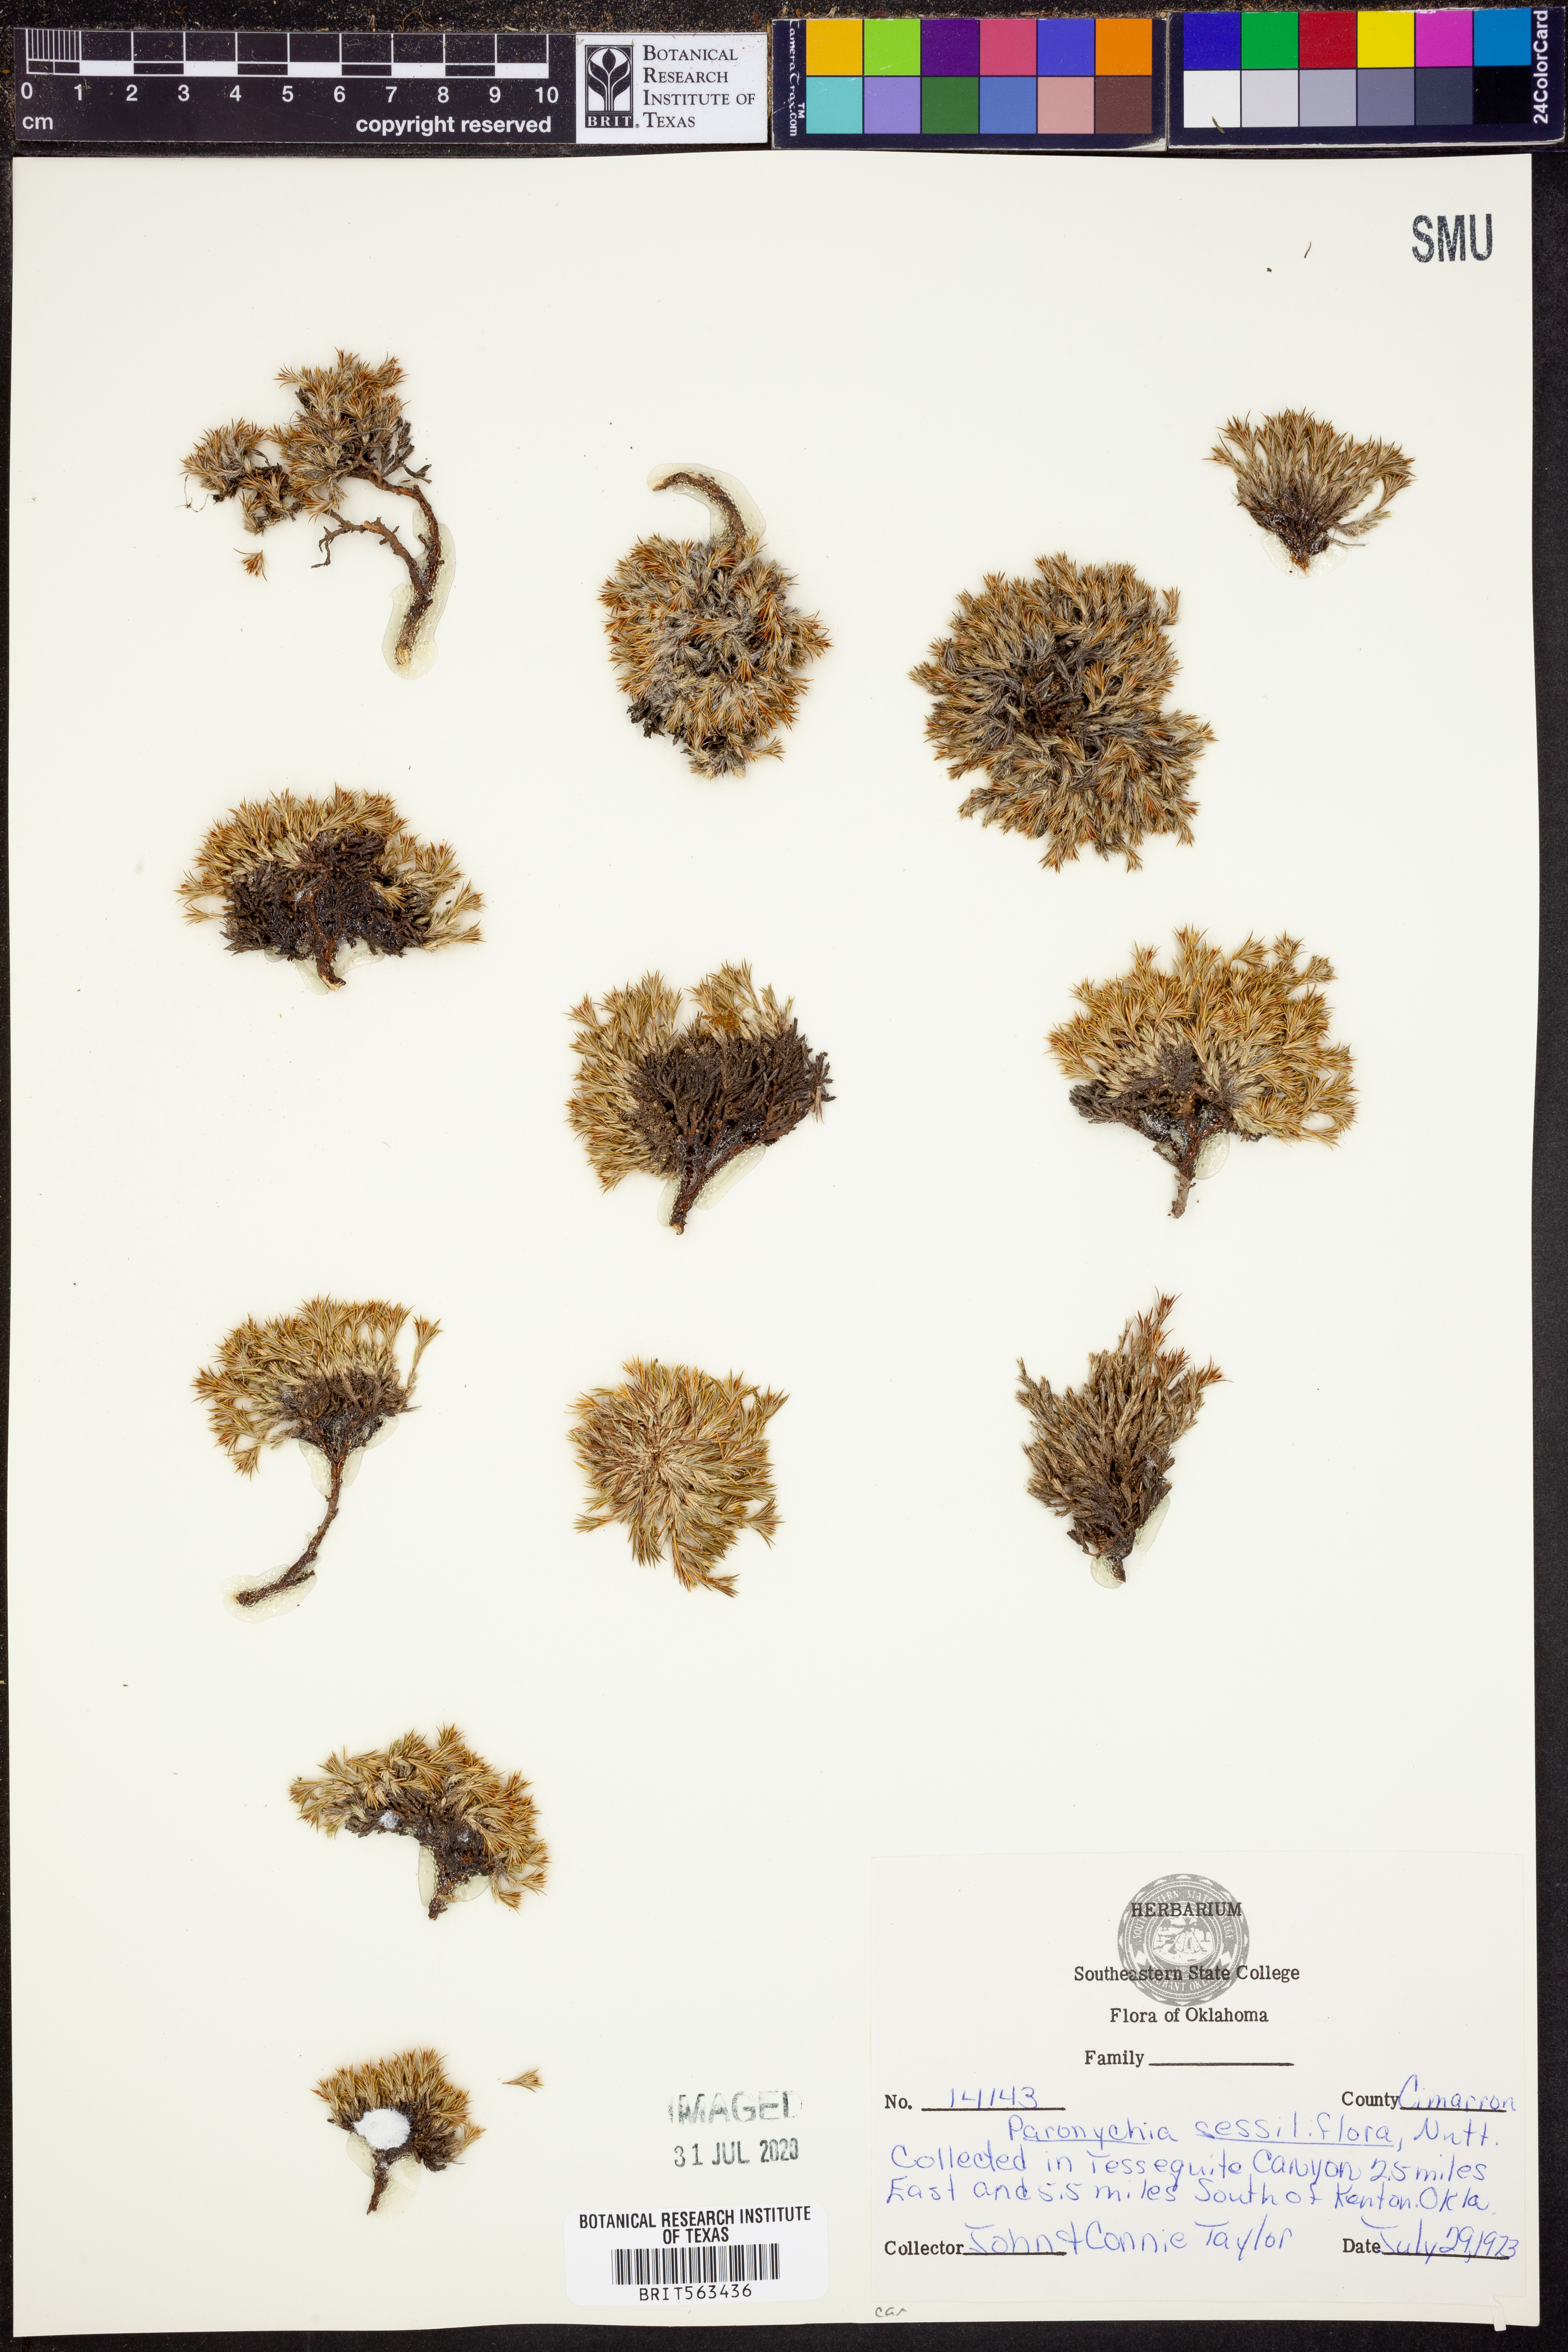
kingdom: Plantae
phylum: Tracheophyta
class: Magnoliopsida
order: Caryophyllales
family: Caryophyllaceae
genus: Paronychia
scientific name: Paronychia sessiliflora
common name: Creeping nailwort
